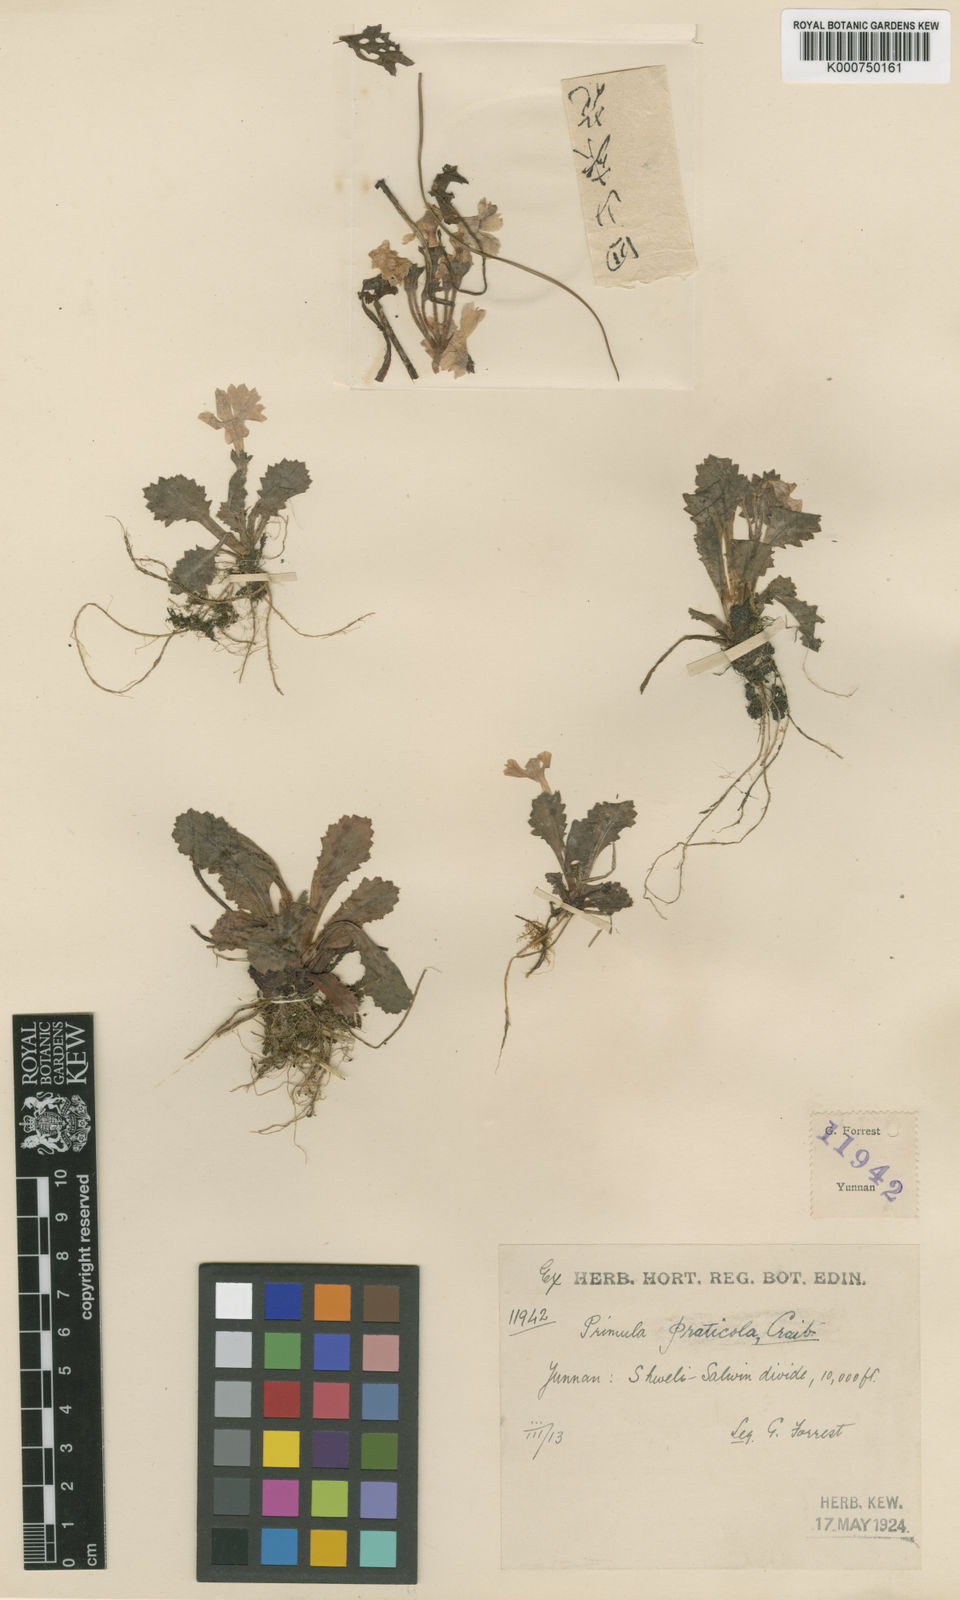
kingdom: Plantae
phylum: Tracheophyta
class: Magnoliopsida
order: Ericales
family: Primulaceae
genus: Primula
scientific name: Primula taliensis
